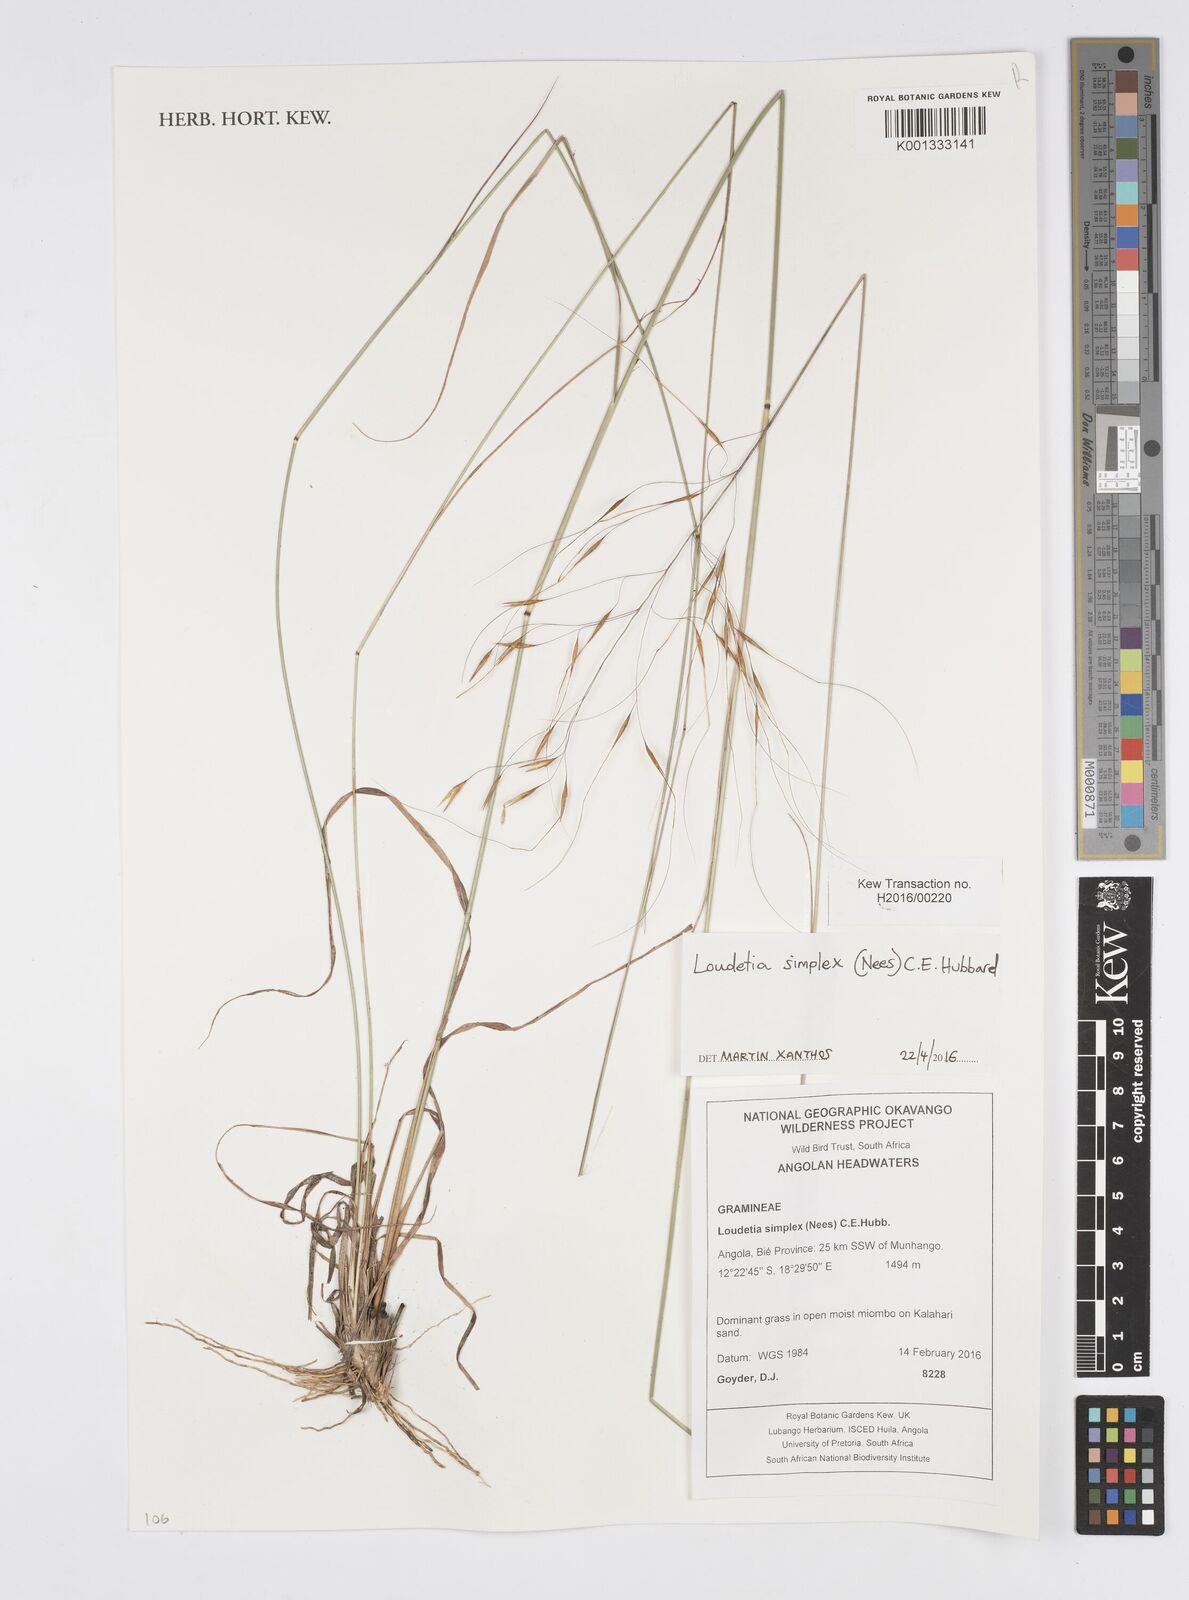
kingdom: Plantae
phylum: Tracheophyta
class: Liliopsida
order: Poales
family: Poaceae
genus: Loudetia
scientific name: Loudetia simplex
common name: Common russet grass
